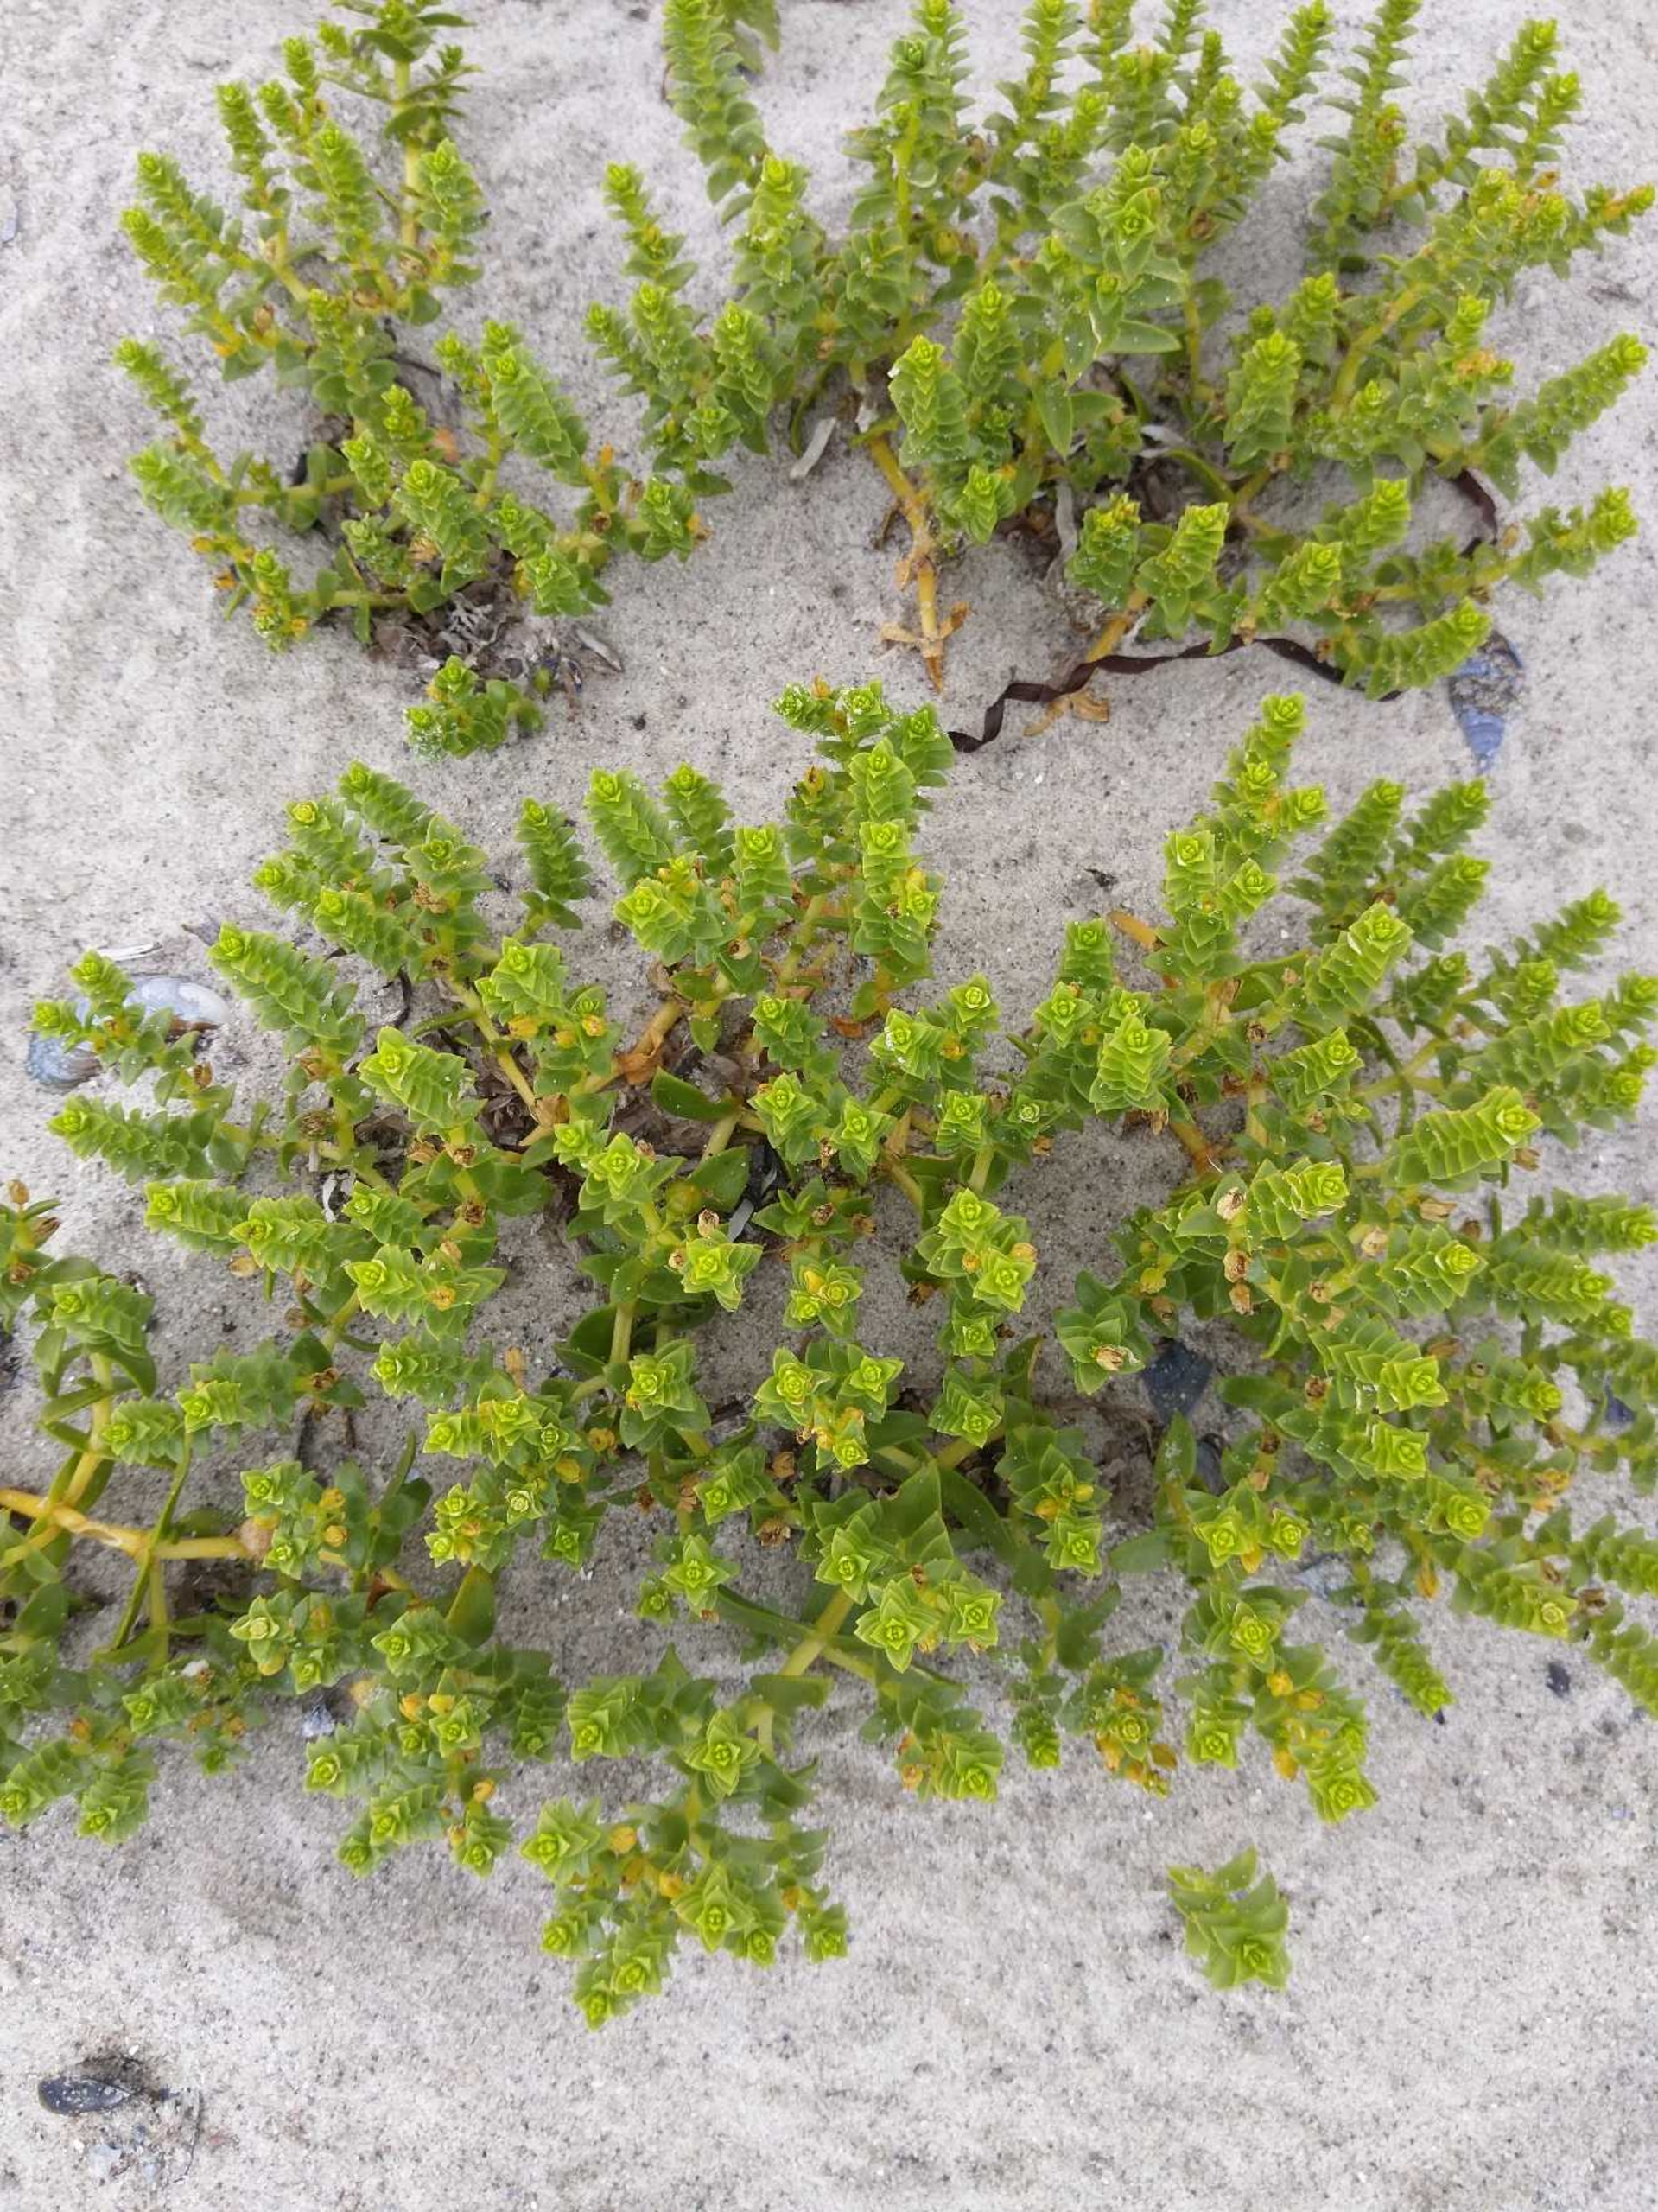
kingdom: Plantae
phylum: Tracheophyta
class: Magnoliopsida
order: Caryophyllales
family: Caryophyllaceae
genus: Honckenya
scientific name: Honckenya peploides
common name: Strandarve
